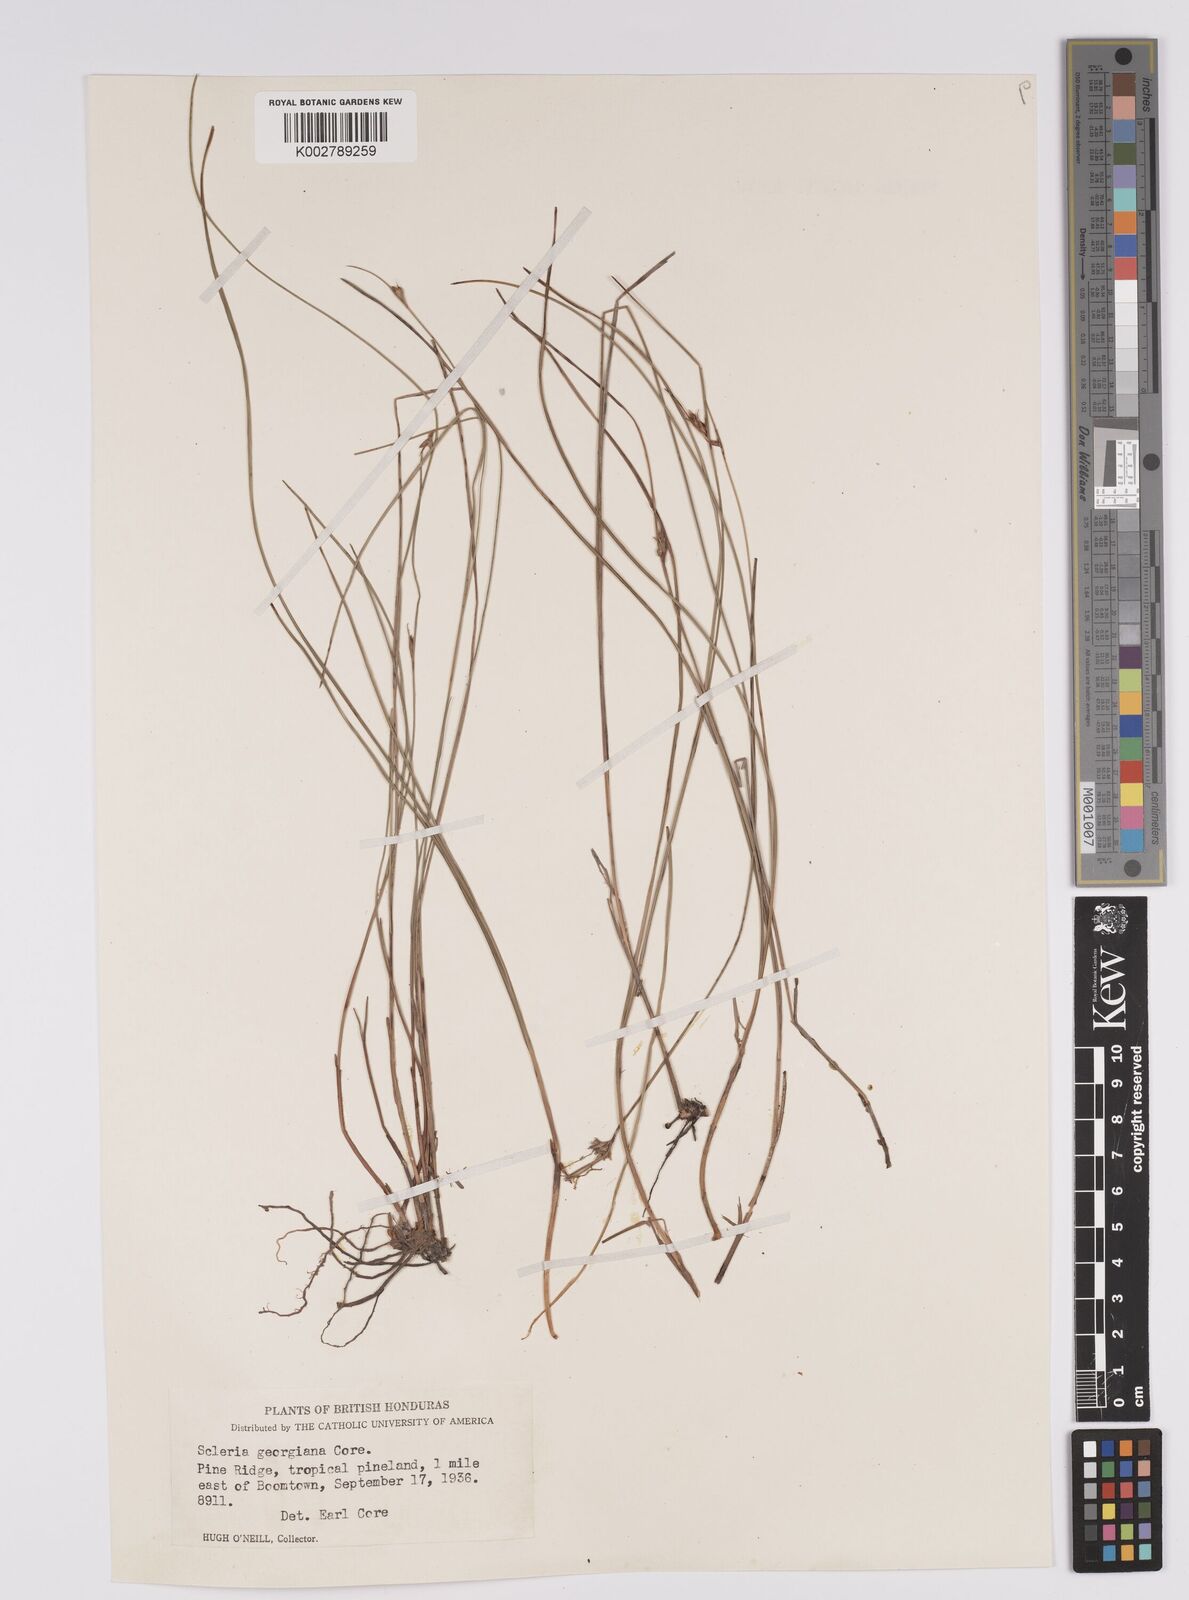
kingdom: Plantae
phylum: Tracheophyta
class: Liliopsida
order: Poales
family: Cyperaceae
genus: Scleria
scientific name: Scleria georgiana
